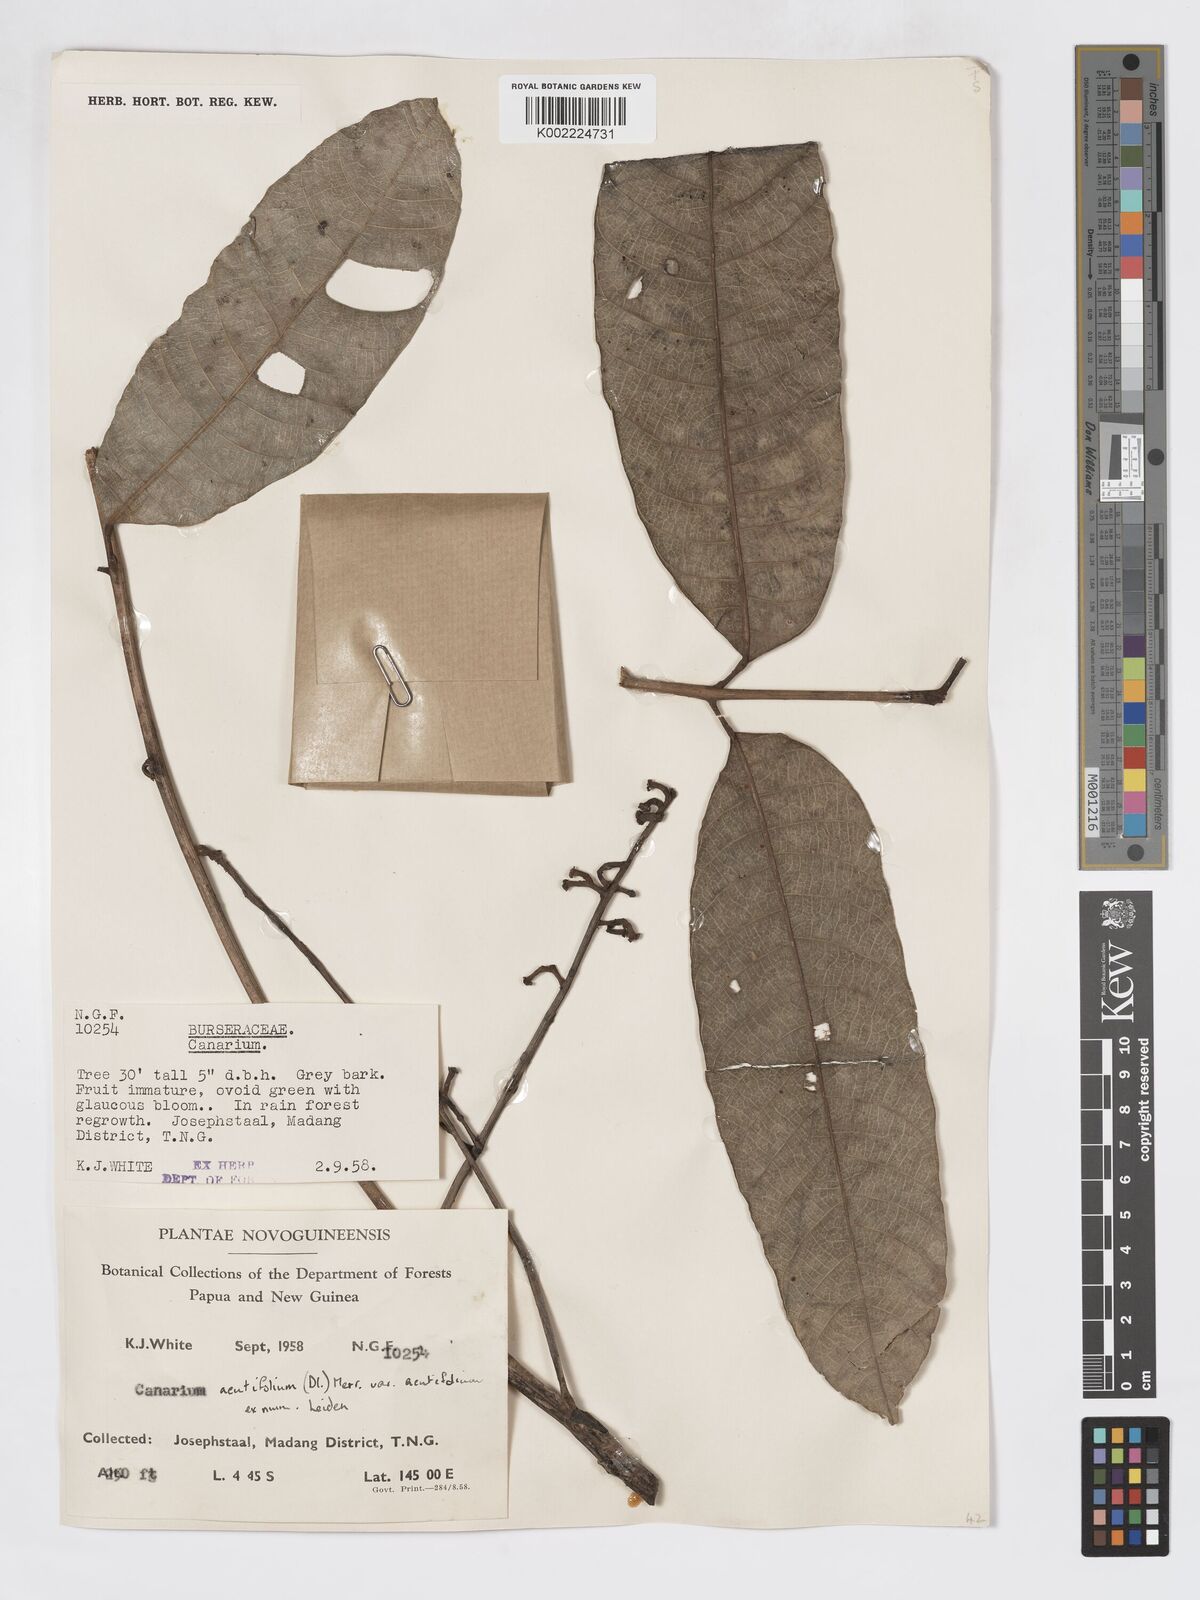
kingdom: Plantae
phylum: Tracheophyta
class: Magnoliopsida
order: Sapindales
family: Burseraceae
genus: Canarium
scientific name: Canarium acutifolium
